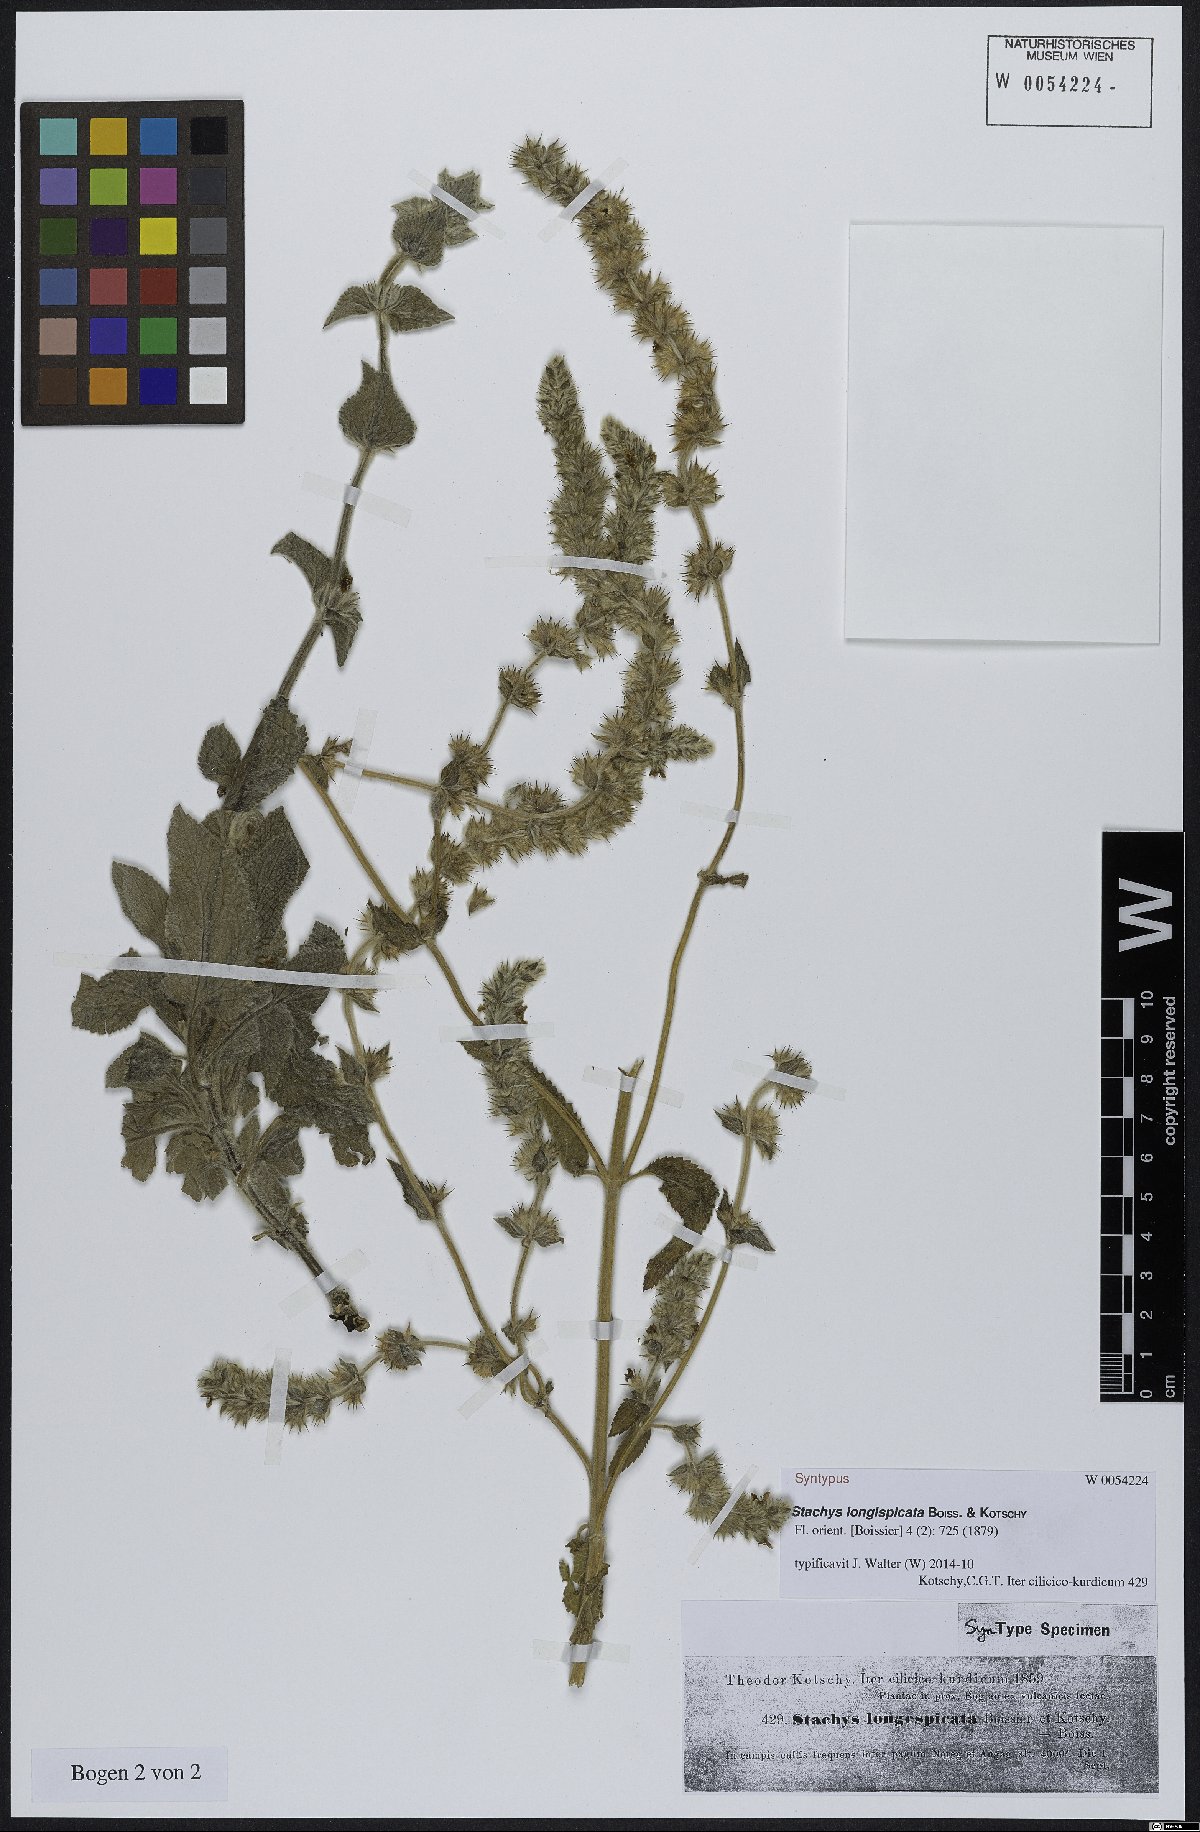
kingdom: Plantae
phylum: Tracheophyta
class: Magnoliopsida
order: Lamiales
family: Lamiaceae
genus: Stachys
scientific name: Stachys longispicata
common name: Longspike hedgenettle
